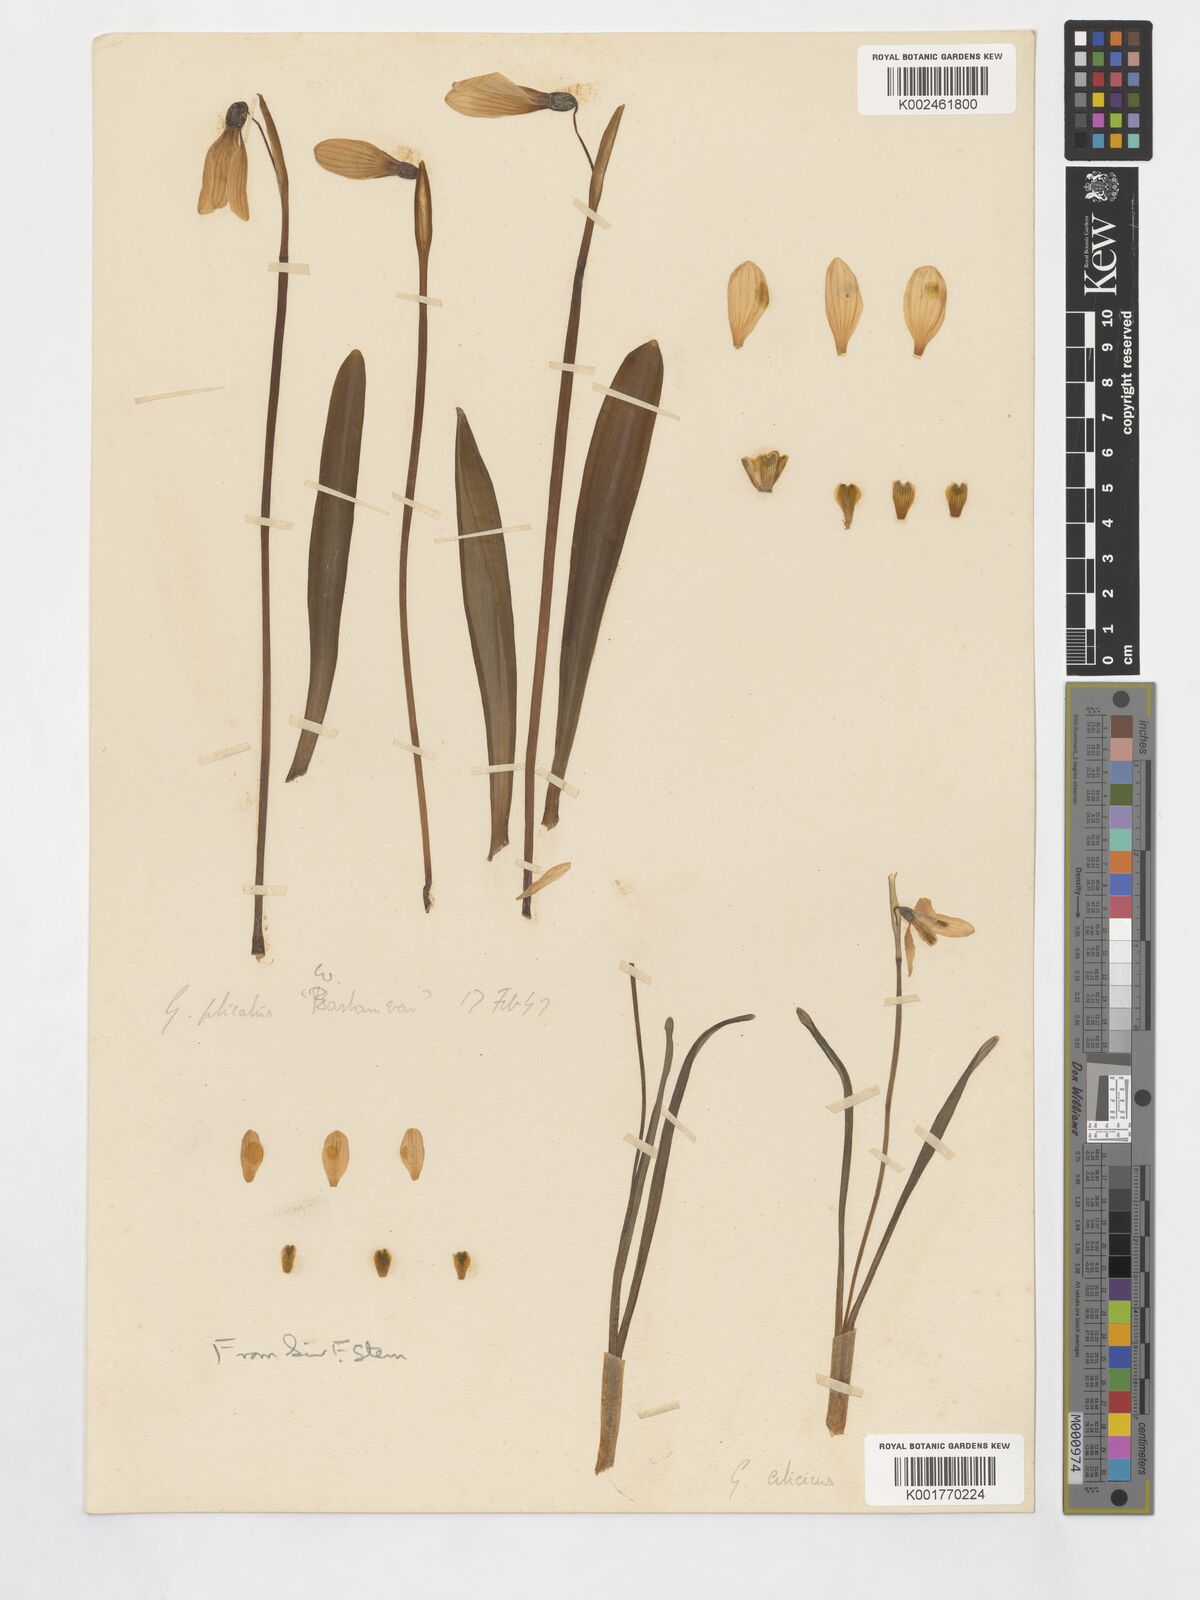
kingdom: Plantae
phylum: Tracheophyta
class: Liliopsida
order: Asparagales
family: Amaryllidaceae
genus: Galanthus
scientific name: Galanthus plicatus
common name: Pleated snowdrop
